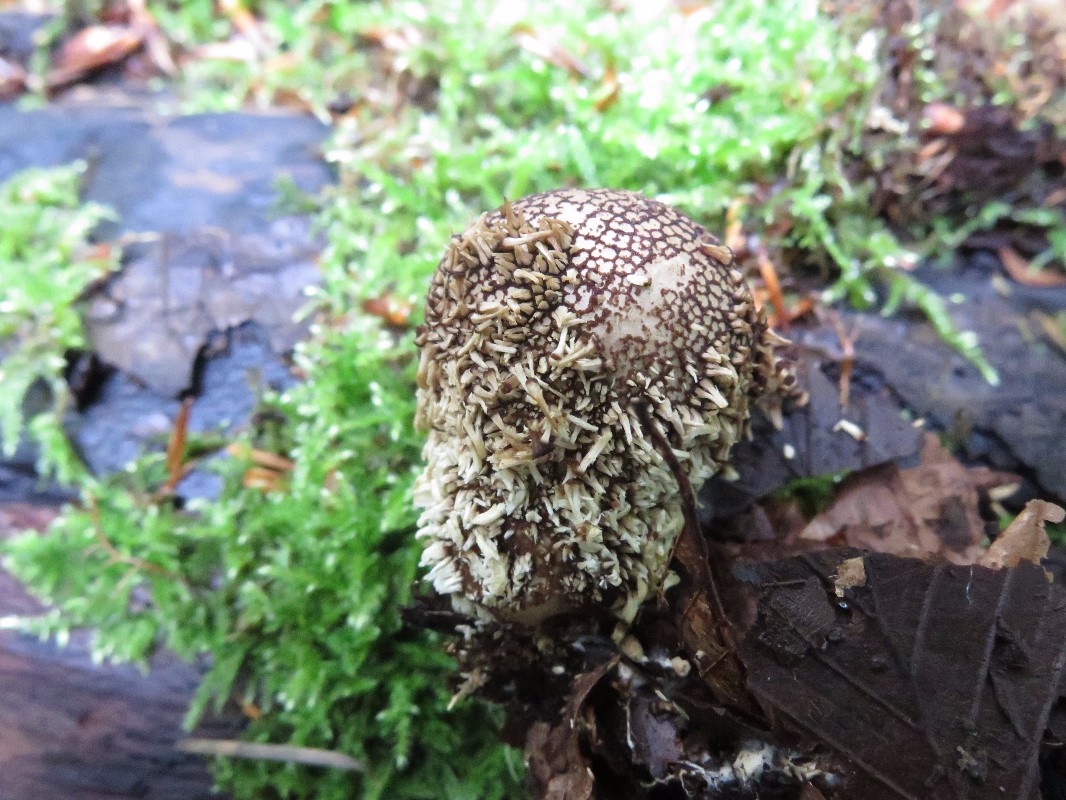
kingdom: Fungi
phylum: Basidiomycota
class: Agaricomycetes
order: Agaricales
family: Lycoperdaceae
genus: Lycoperdon
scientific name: Lycoperdon echinatum
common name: pindsvine-støvbold
